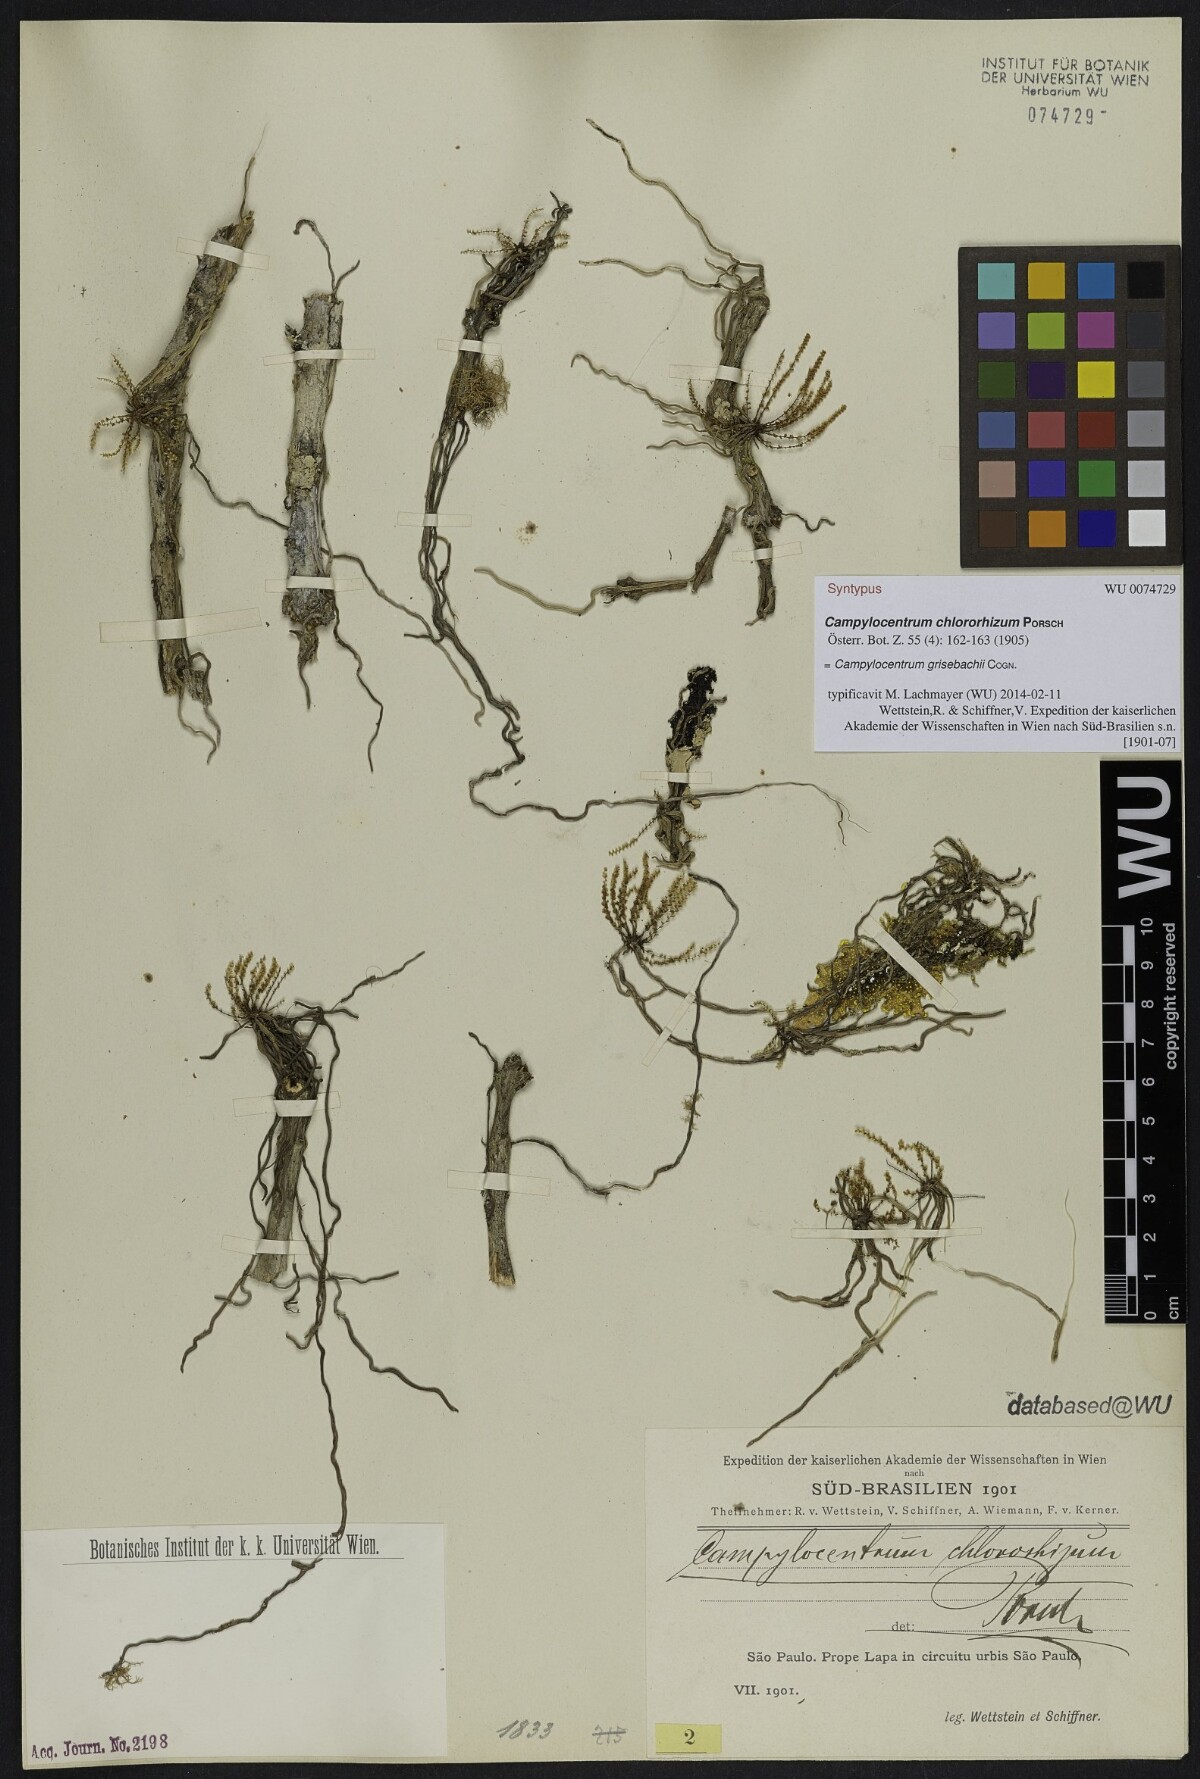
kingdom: Plantae
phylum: Tracheophyta
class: Liliopsida
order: Asparagales
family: Orchidaceae
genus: Campylocentrum
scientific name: Campylocentrum grisebachii
